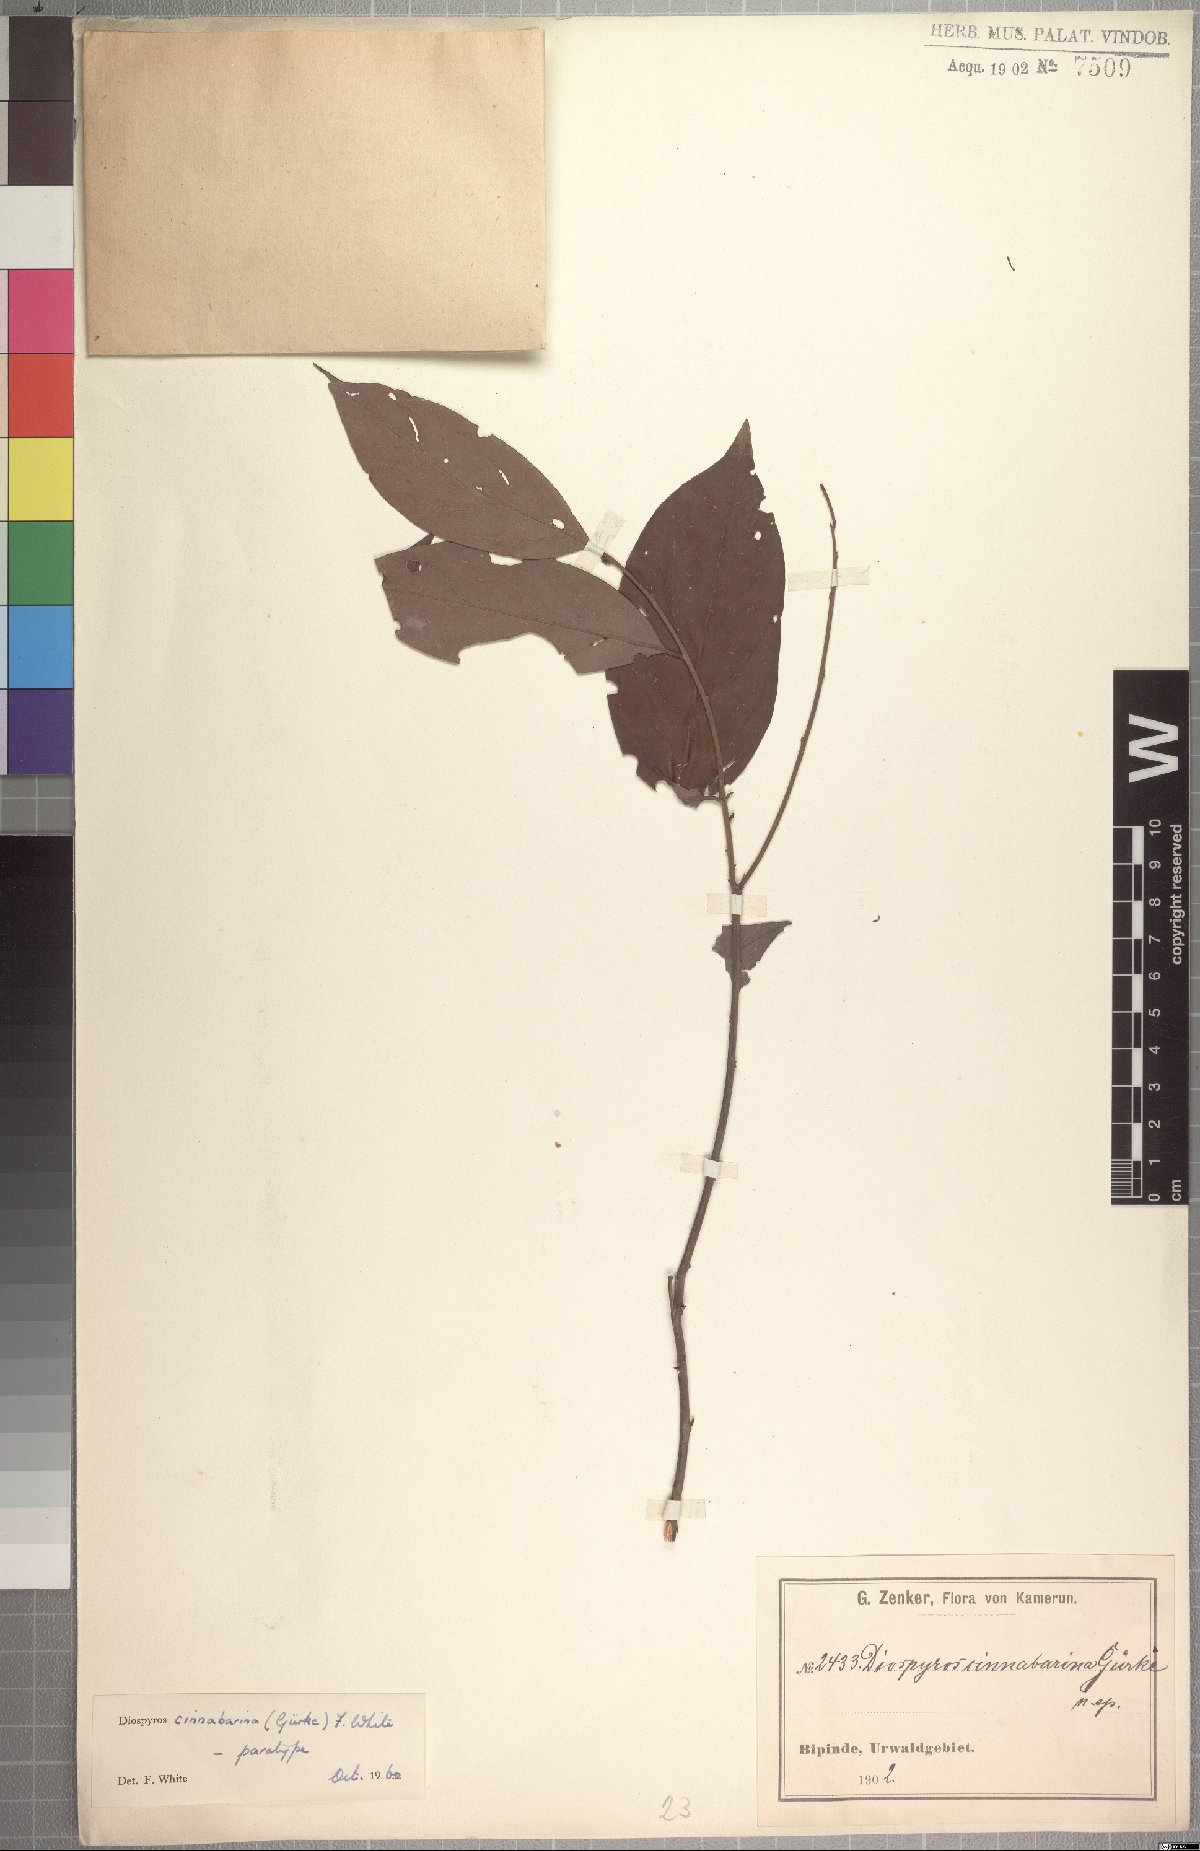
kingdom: Plantae
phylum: Tracheophyta
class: Magnoliopsida
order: Ericales
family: Ebenaceae
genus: Diospyros
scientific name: Diospyros cinnabarina
